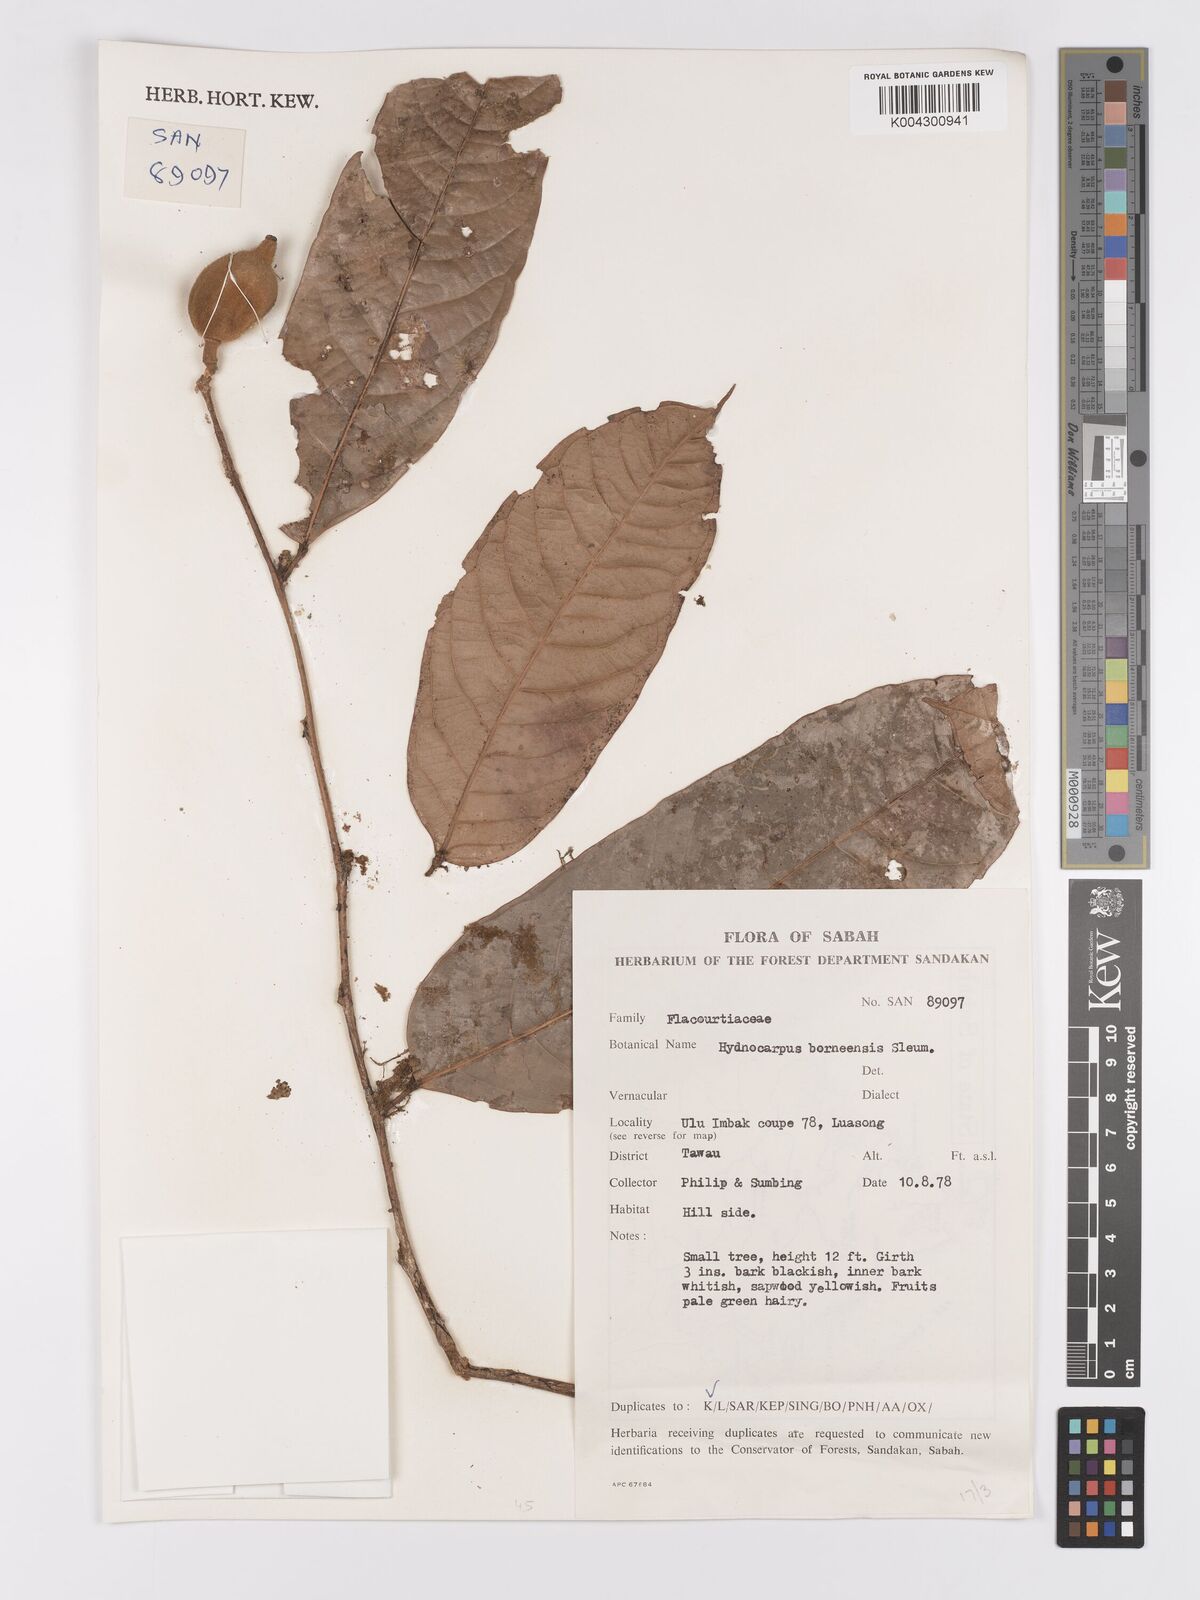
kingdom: Plantae
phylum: Tracheophyta
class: Magnoliopsida
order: Malpighiales
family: Achariaceae
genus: Hydnocarpus
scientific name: Hydnocarpus borneensis
